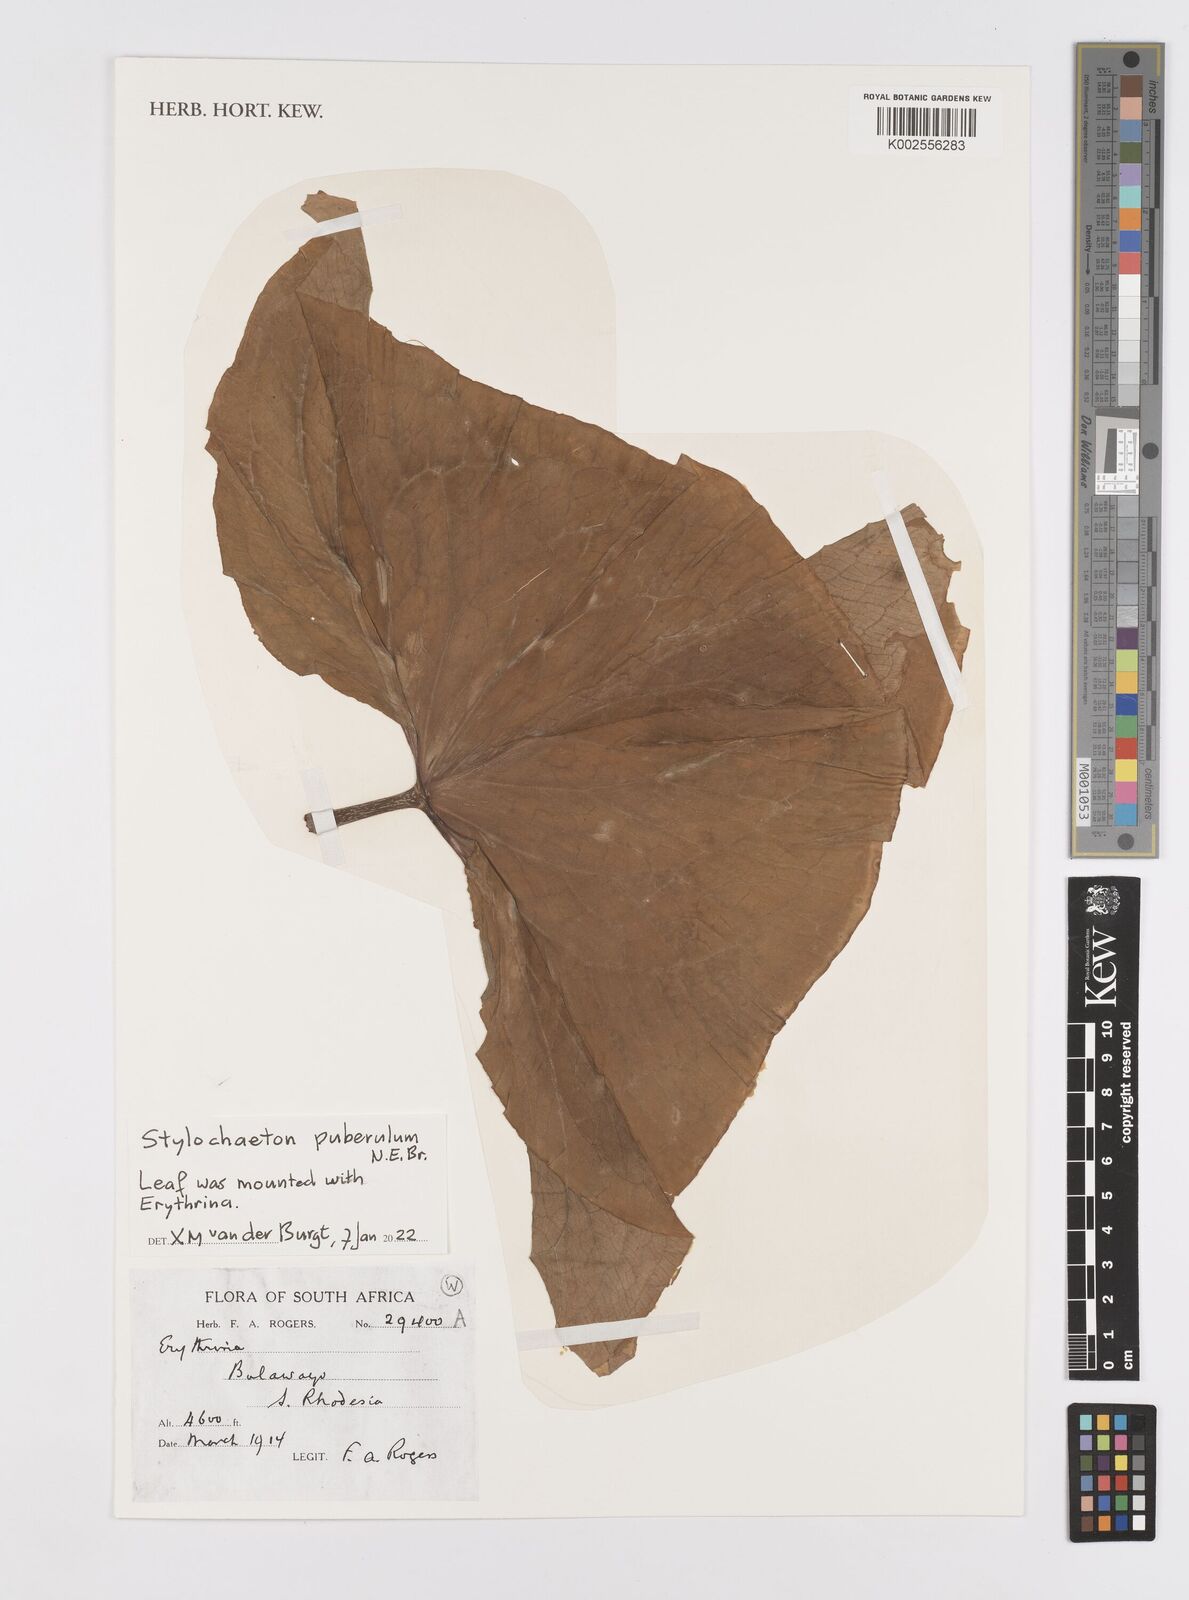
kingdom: Plantae
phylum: Tracheophyta
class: Liliopsida
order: Alismatales
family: Araceae
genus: Stylochaeton
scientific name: Stylochaeton puberulum
